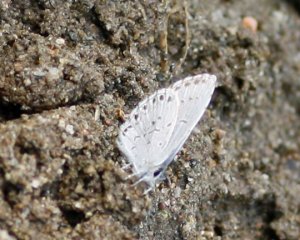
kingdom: Animalia
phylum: Arthropoda
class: Insecta
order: Lepidoptera
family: Lycaenidae
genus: Cyaniris
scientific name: Cyaniris neglecta
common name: Summer Azure
